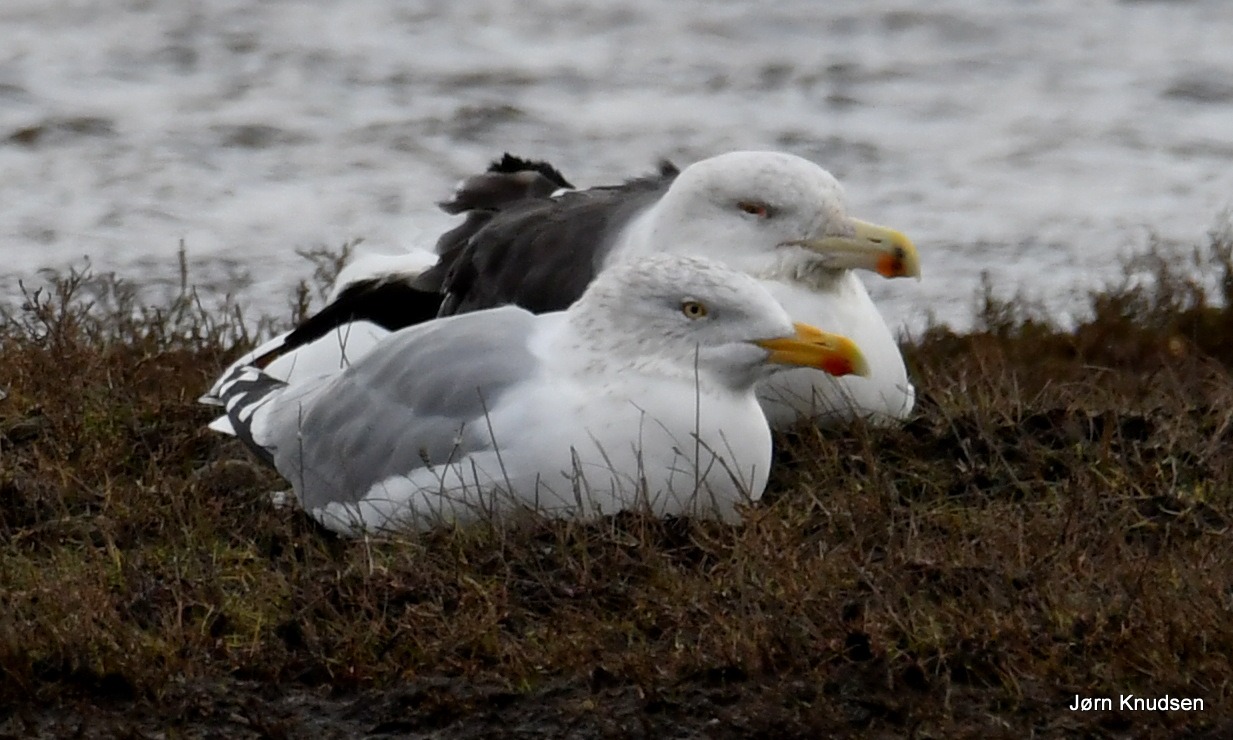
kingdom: Animalia
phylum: Chordata
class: Aves
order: Charadriiformes
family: Laridae
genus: Larus
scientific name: Larus marinus
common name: Svartbag
